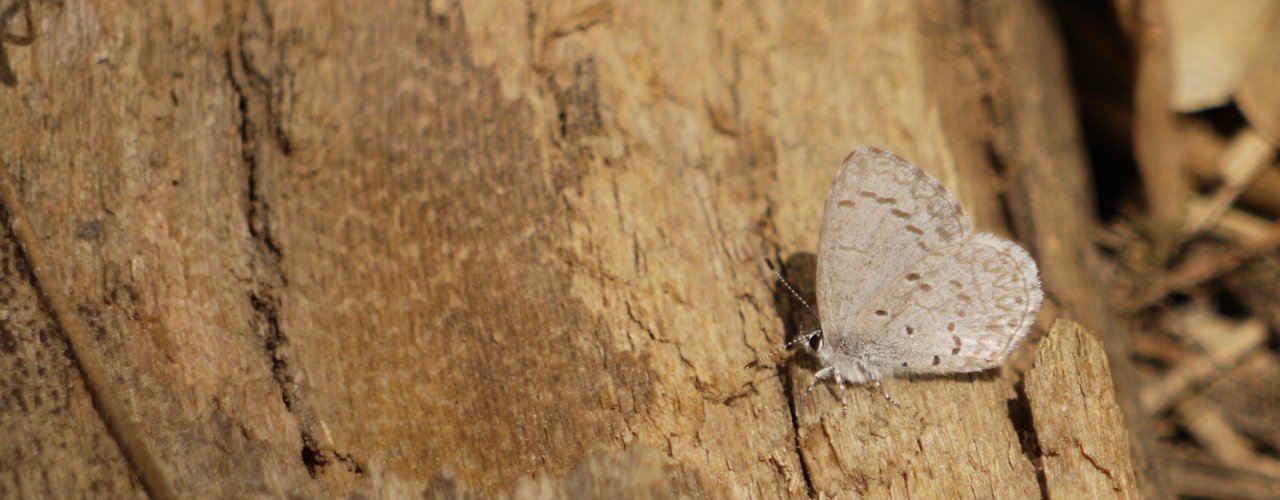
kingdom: Animalia
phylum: Arthropoda
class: Insecta
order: Lepidoptera
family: Lycaenidae
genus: Celastrina
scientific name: Celastrina
